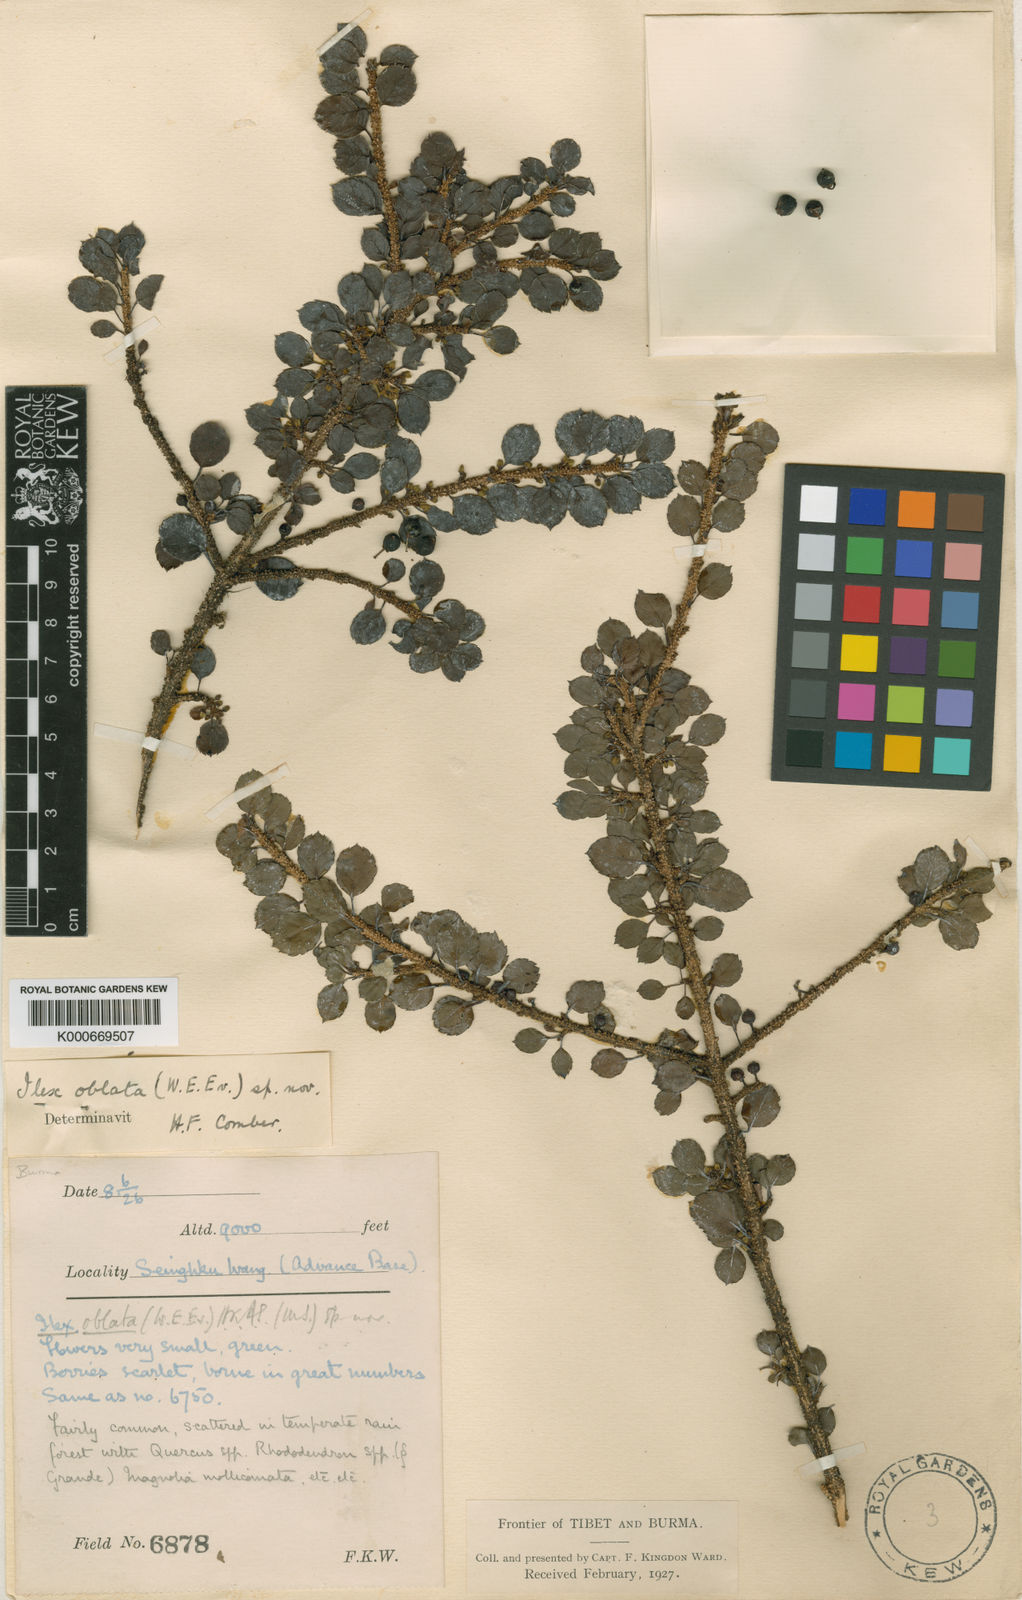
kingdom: Plantae
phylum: Tracheophyta
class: Magnoliopsida
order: Aquifoliales
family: Aquifoliaceae
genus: Ilex
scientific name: Ilex nothofagifolia
